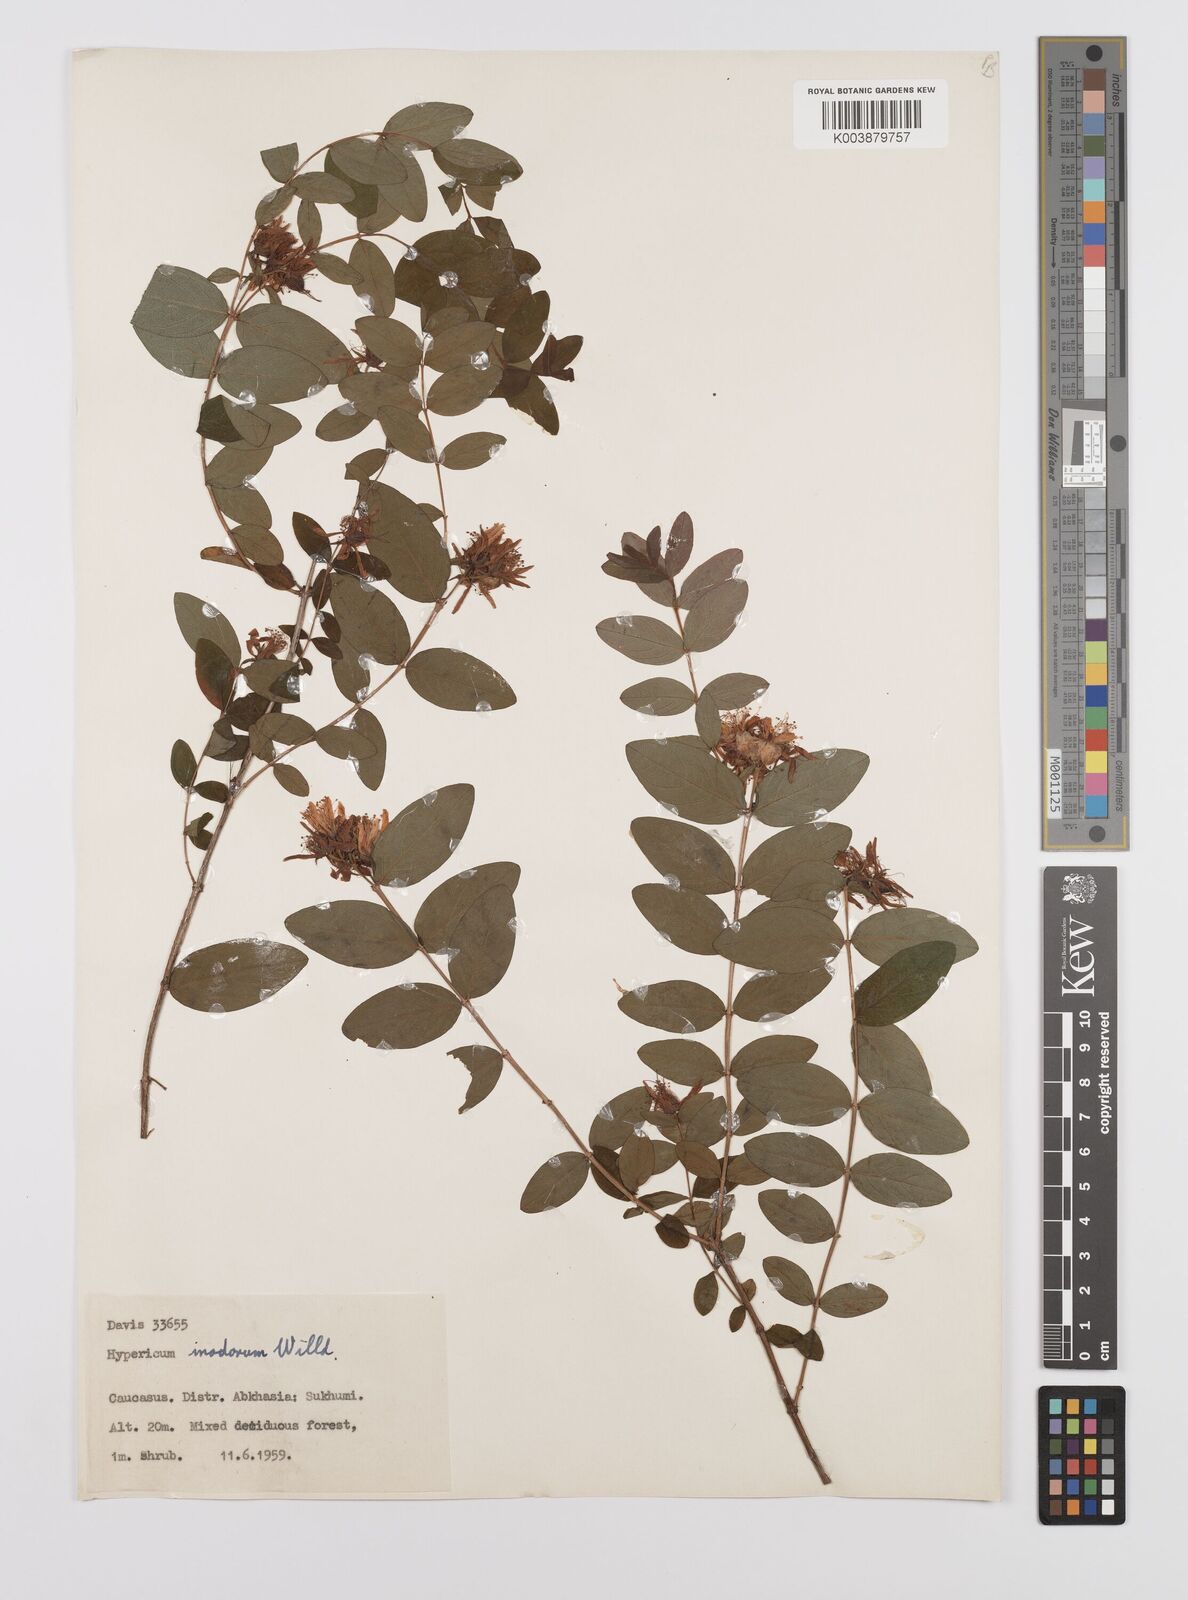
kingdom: Plantae
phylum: Tracheophyta
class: Magnoliopsida
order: Malpighiales
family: Hypericaceae
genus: Hypericum
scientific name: Hypericum xylosteifolium
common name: Turkish tutsan
